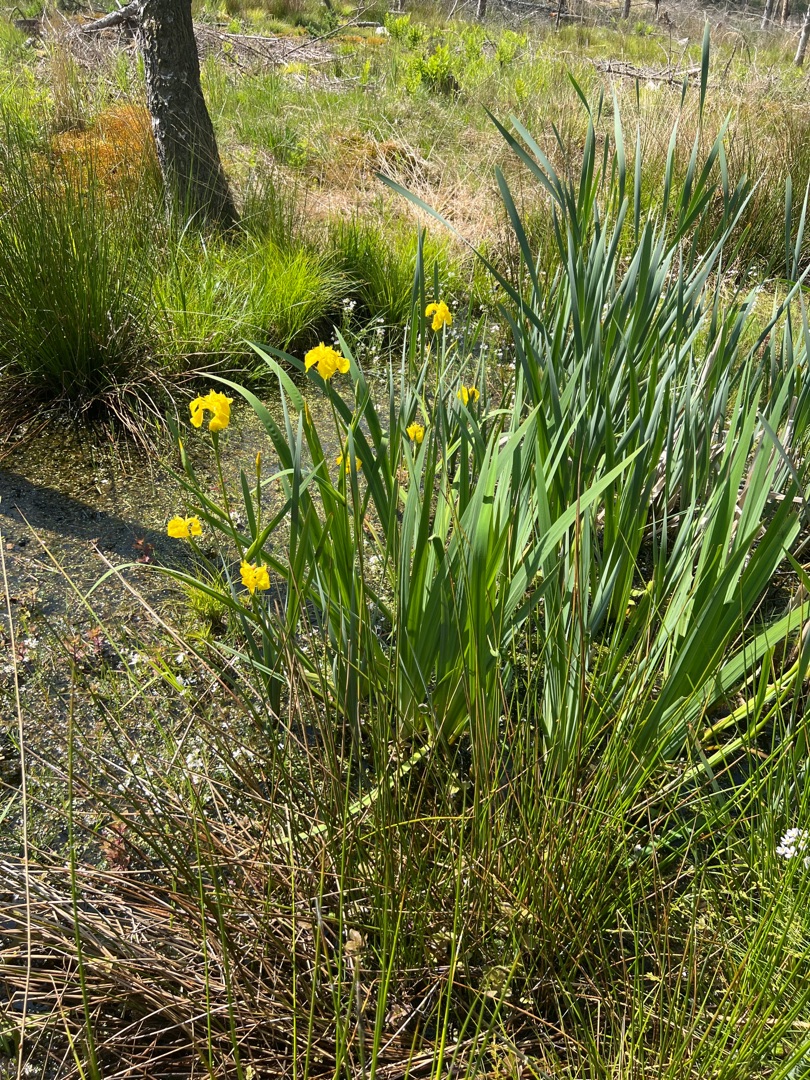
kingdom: Plantae
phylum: Tracheophyta
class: Liliopsida
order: Asparagales
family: Iridaceae
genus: Iris
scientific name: Iris pseudacorus
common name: Gul iris
